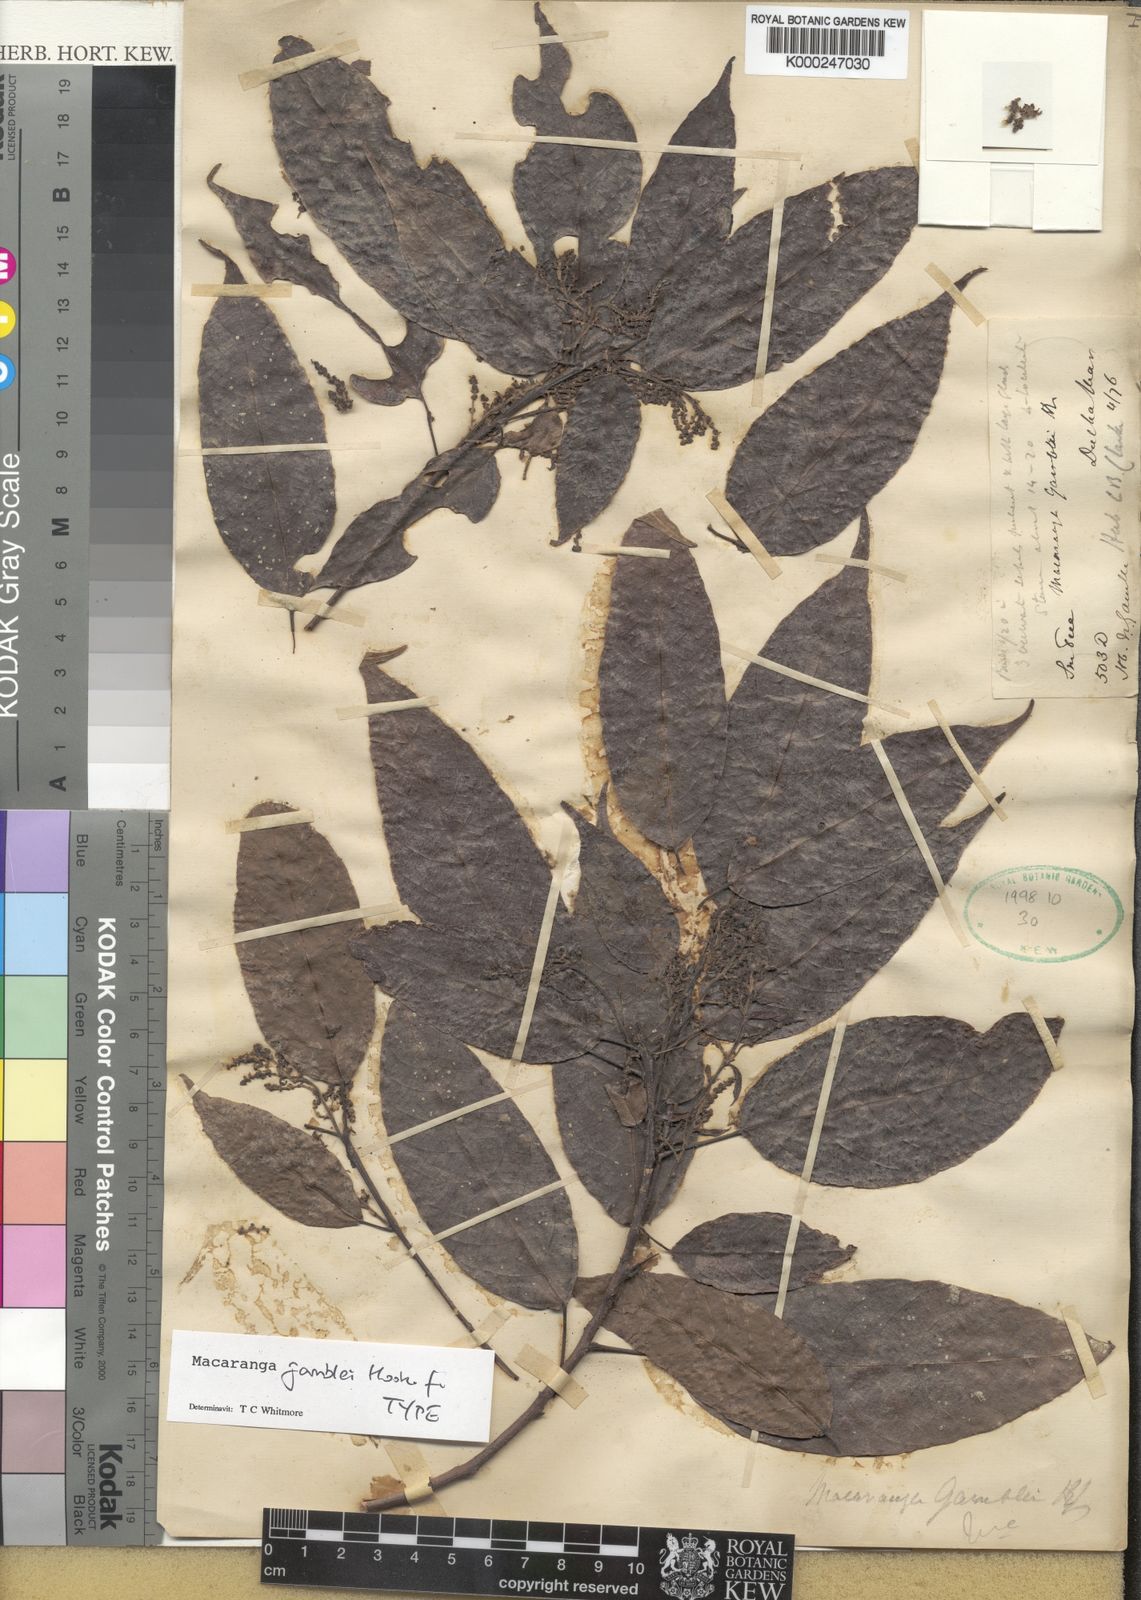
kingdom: Plantae
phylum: Tracheophyta
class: Magnoliopsida
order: Malpighiales
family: Euphorbiaceae
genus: Macaranga
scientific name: Macaranga gamblei
